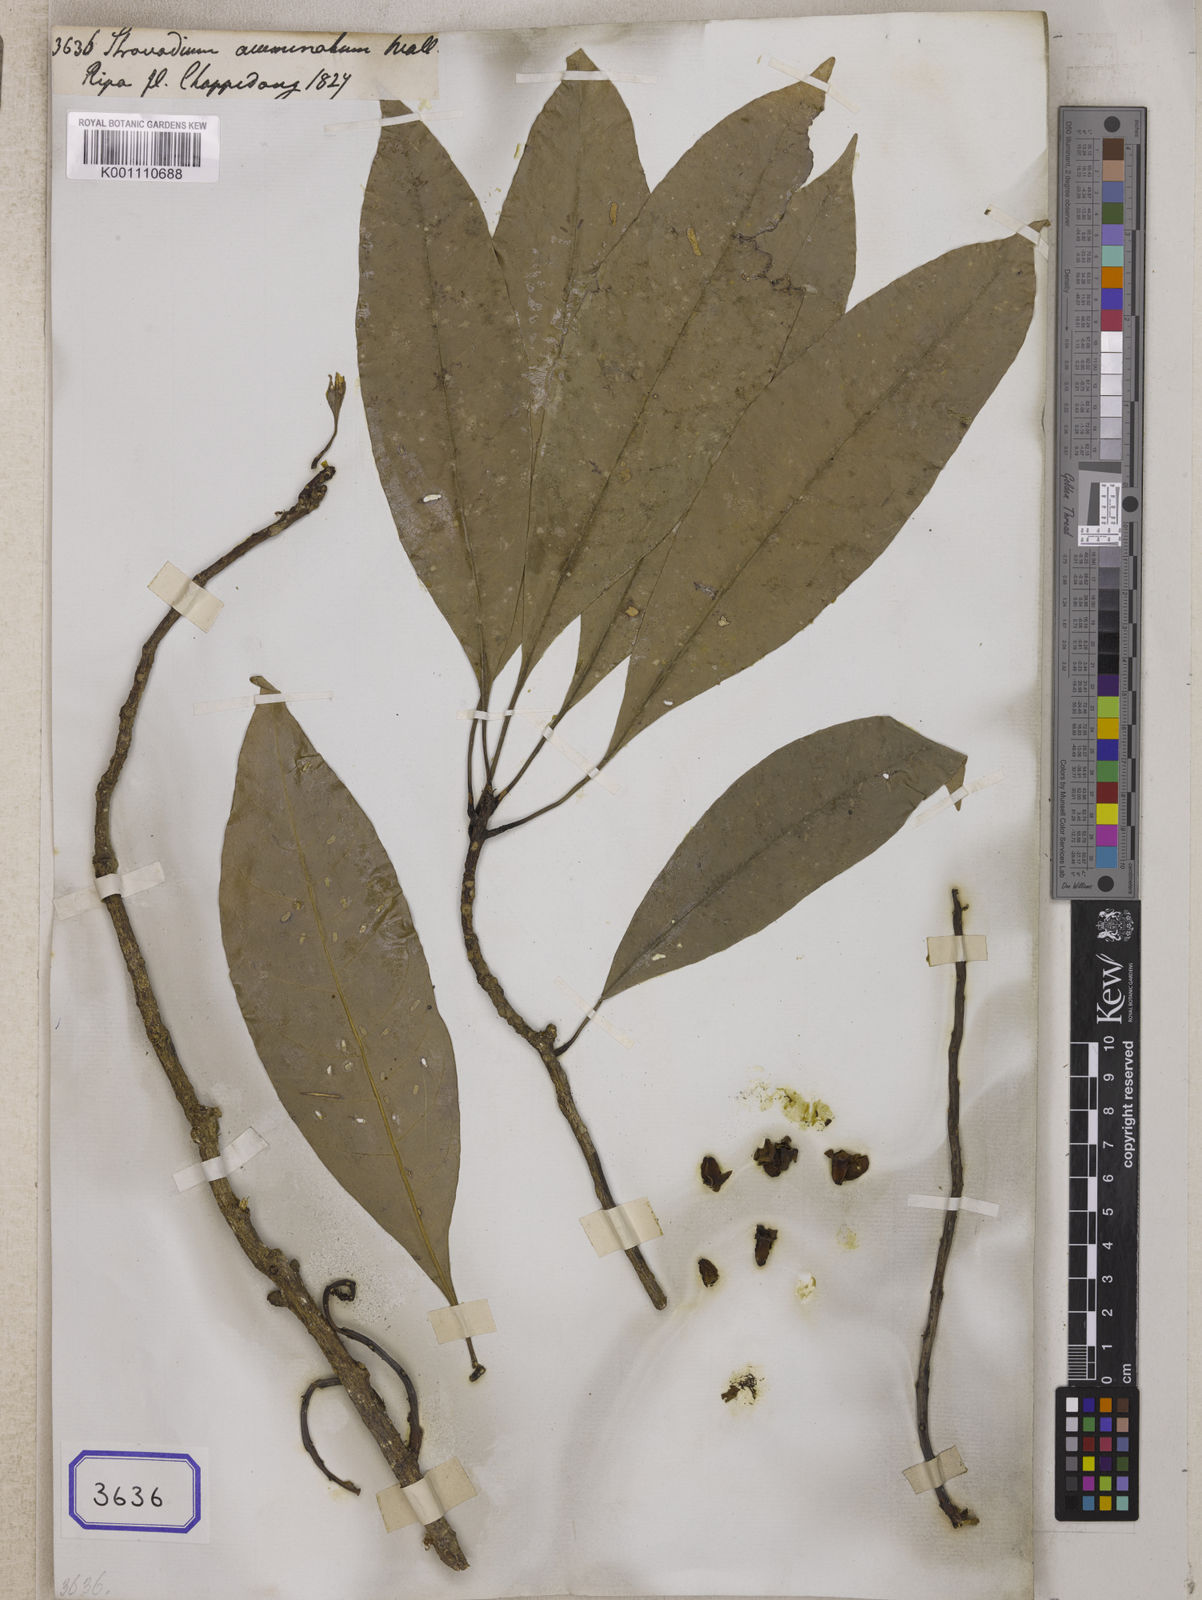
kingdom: Plantae
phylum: Tracheophyta
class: Magnoliopsida
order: Ericales
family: Lecythidaceae
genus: Careya
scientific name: Careya arborea
